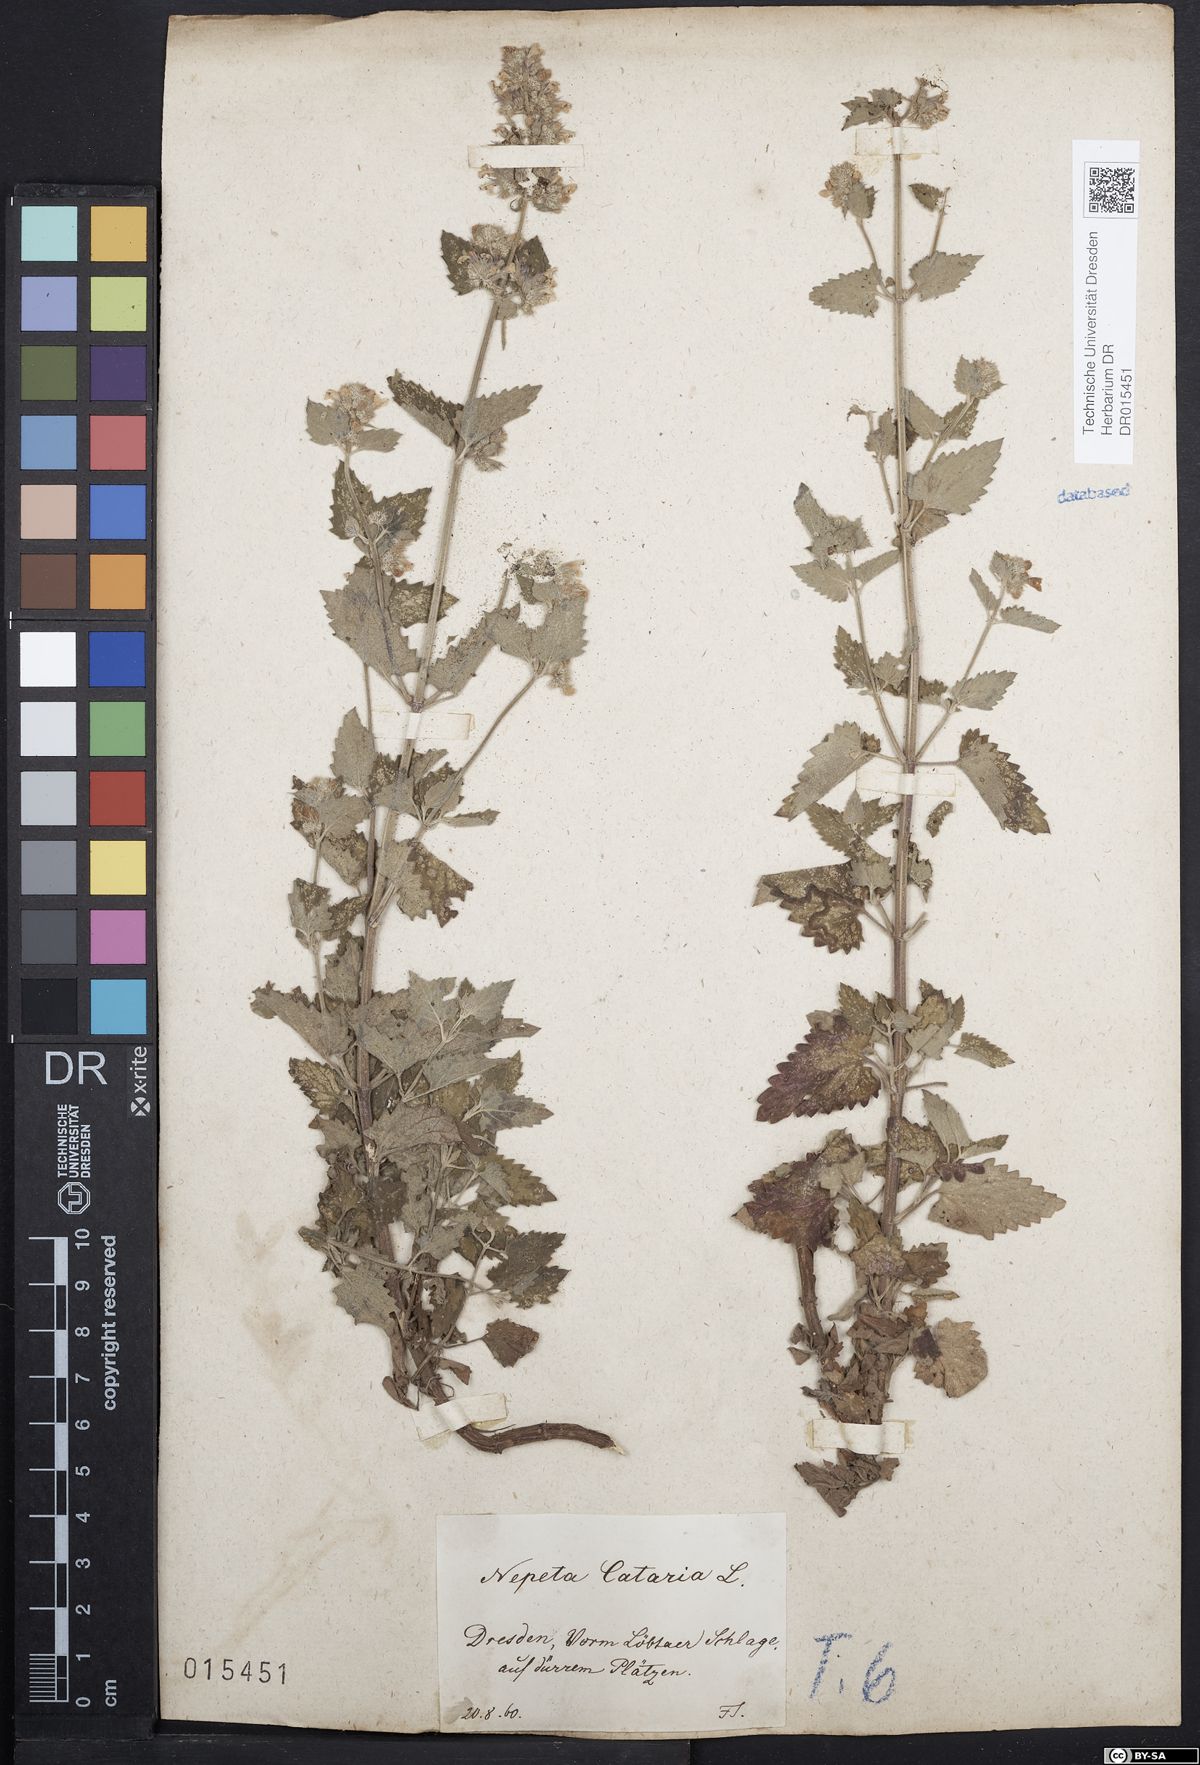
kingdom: Plantae
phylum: Tracheophyta
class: Magnoliopsida
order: Lamiales
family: Lamiaceae
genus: Nepeta
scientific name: Nepeta cataria
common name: Catnip
